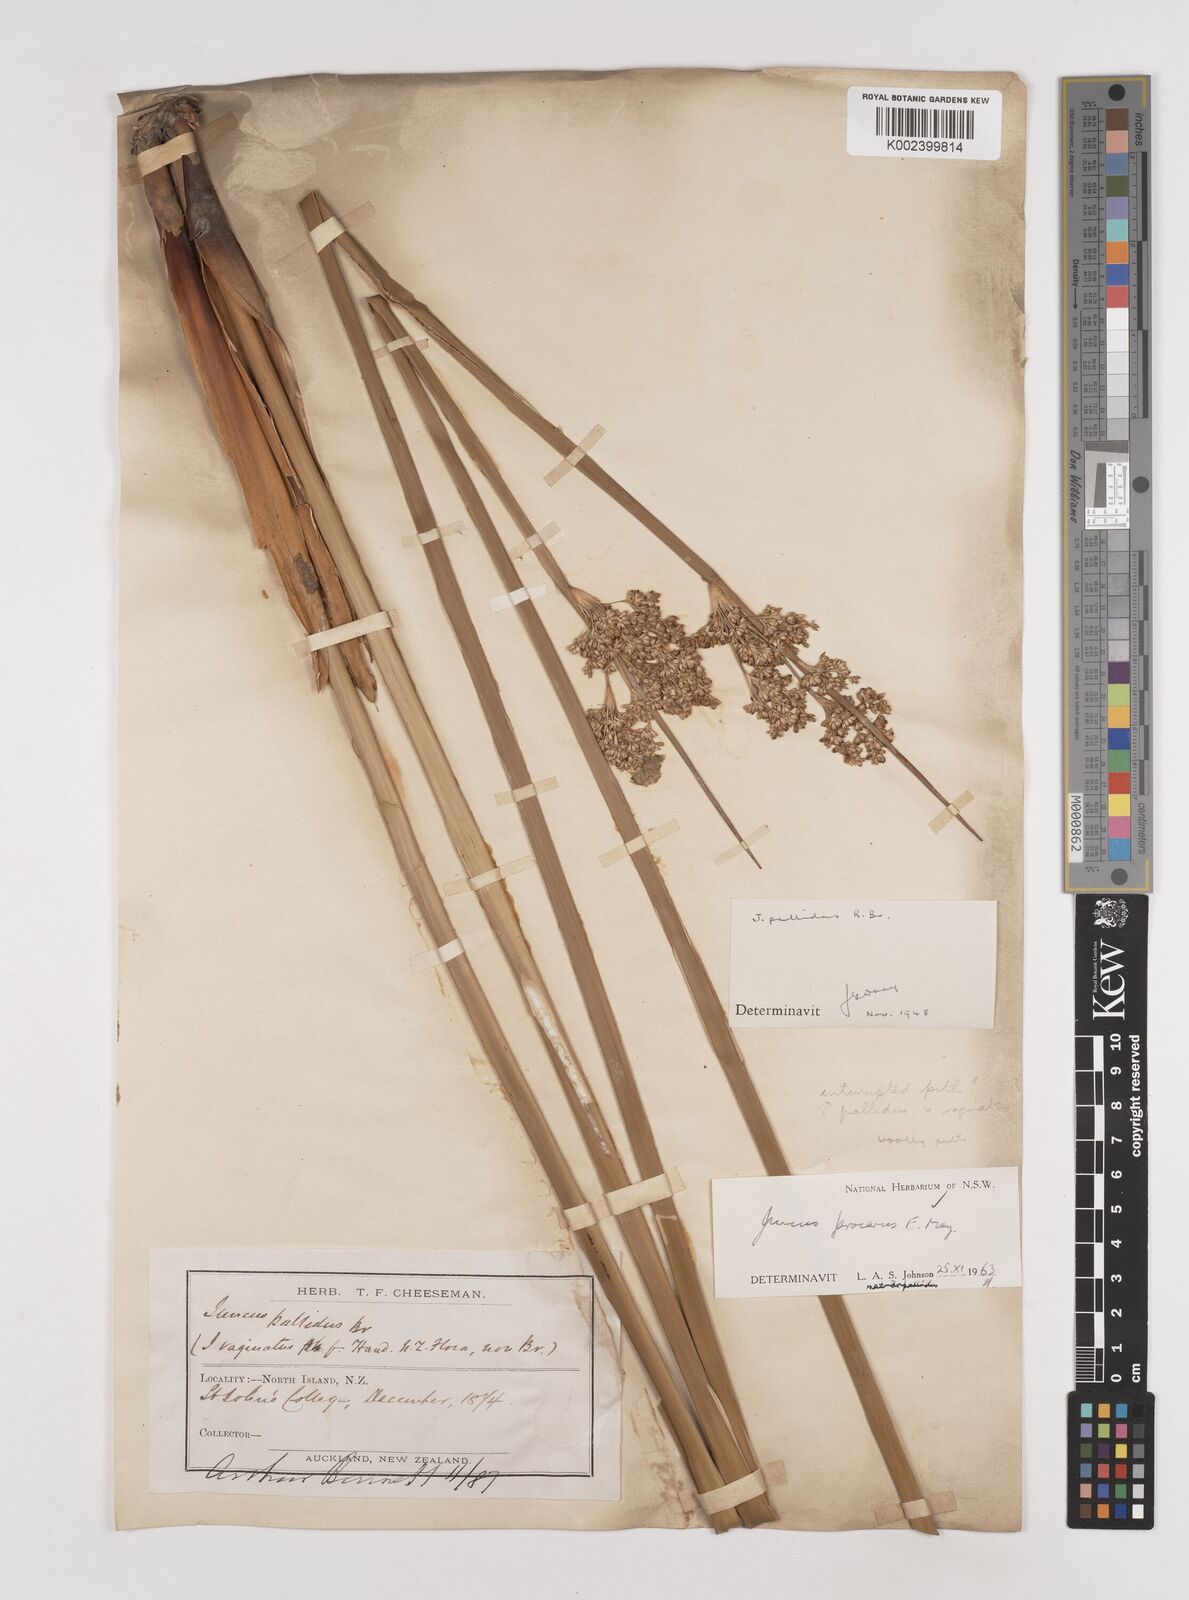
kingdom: Plantae
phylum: Tracheophyta
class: Liliopsida
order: Poales
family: Juncaceae
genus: Juncus
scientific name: Juncus procerus
